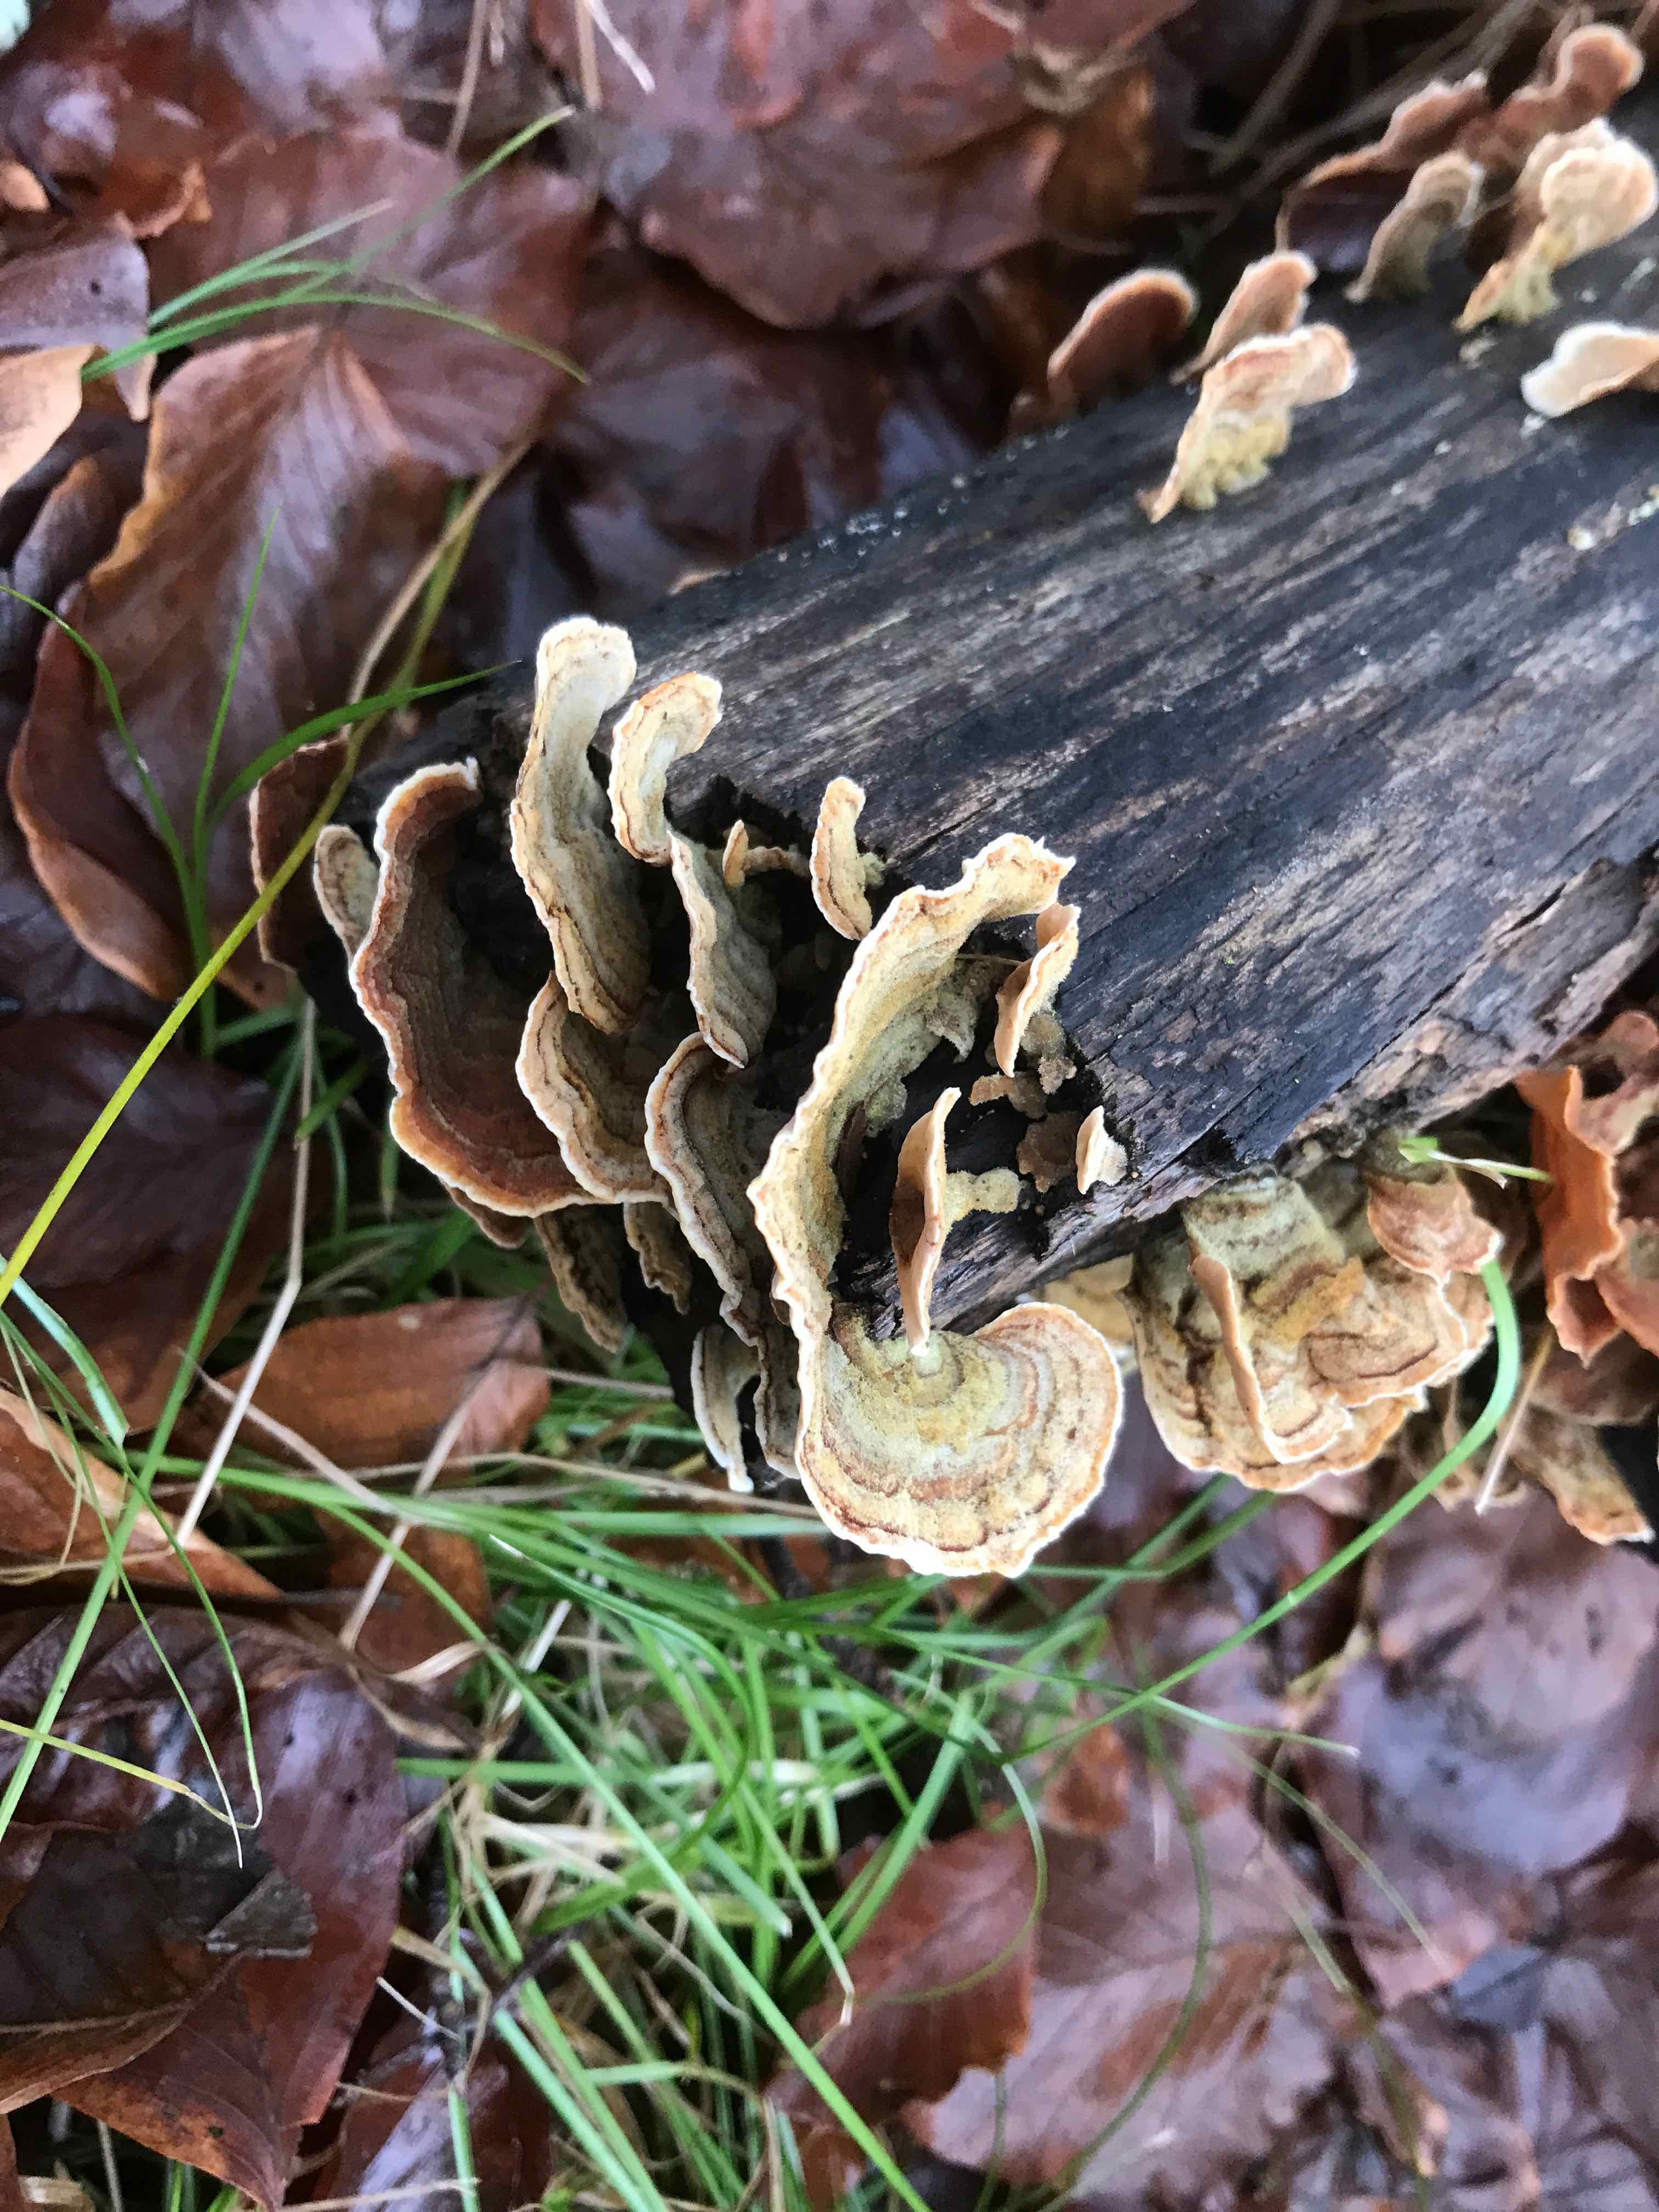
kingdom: Fungi
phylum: Basidiomycota
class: Agaricomycetes
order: Russulales
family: Stereaceae
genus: Stereum
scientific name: Stereum subtomentosum
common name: smuk lædersvamp
